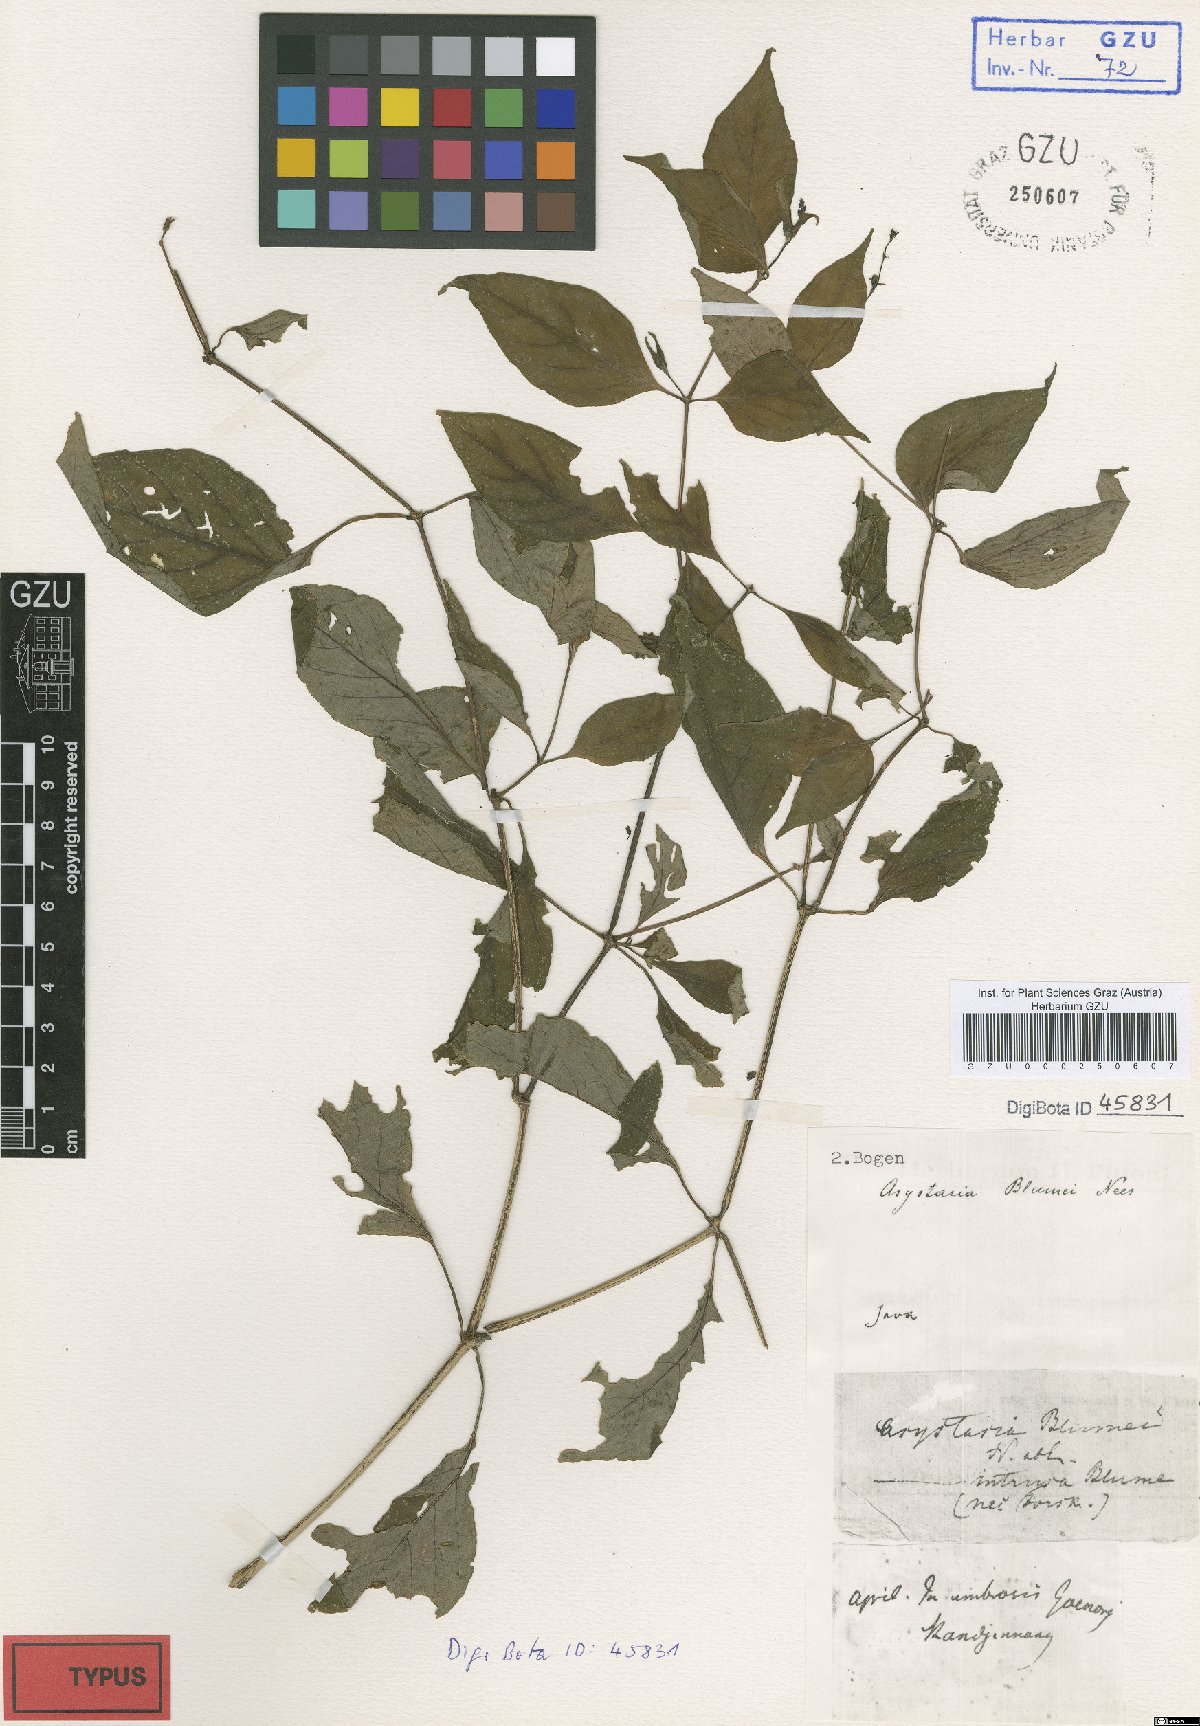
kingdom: Plantae
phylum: Tracheophyta
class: Magnoliopsida
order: Lamiales
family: Acanthaceae
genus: Asystasia
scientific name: Asystasia nemorum
